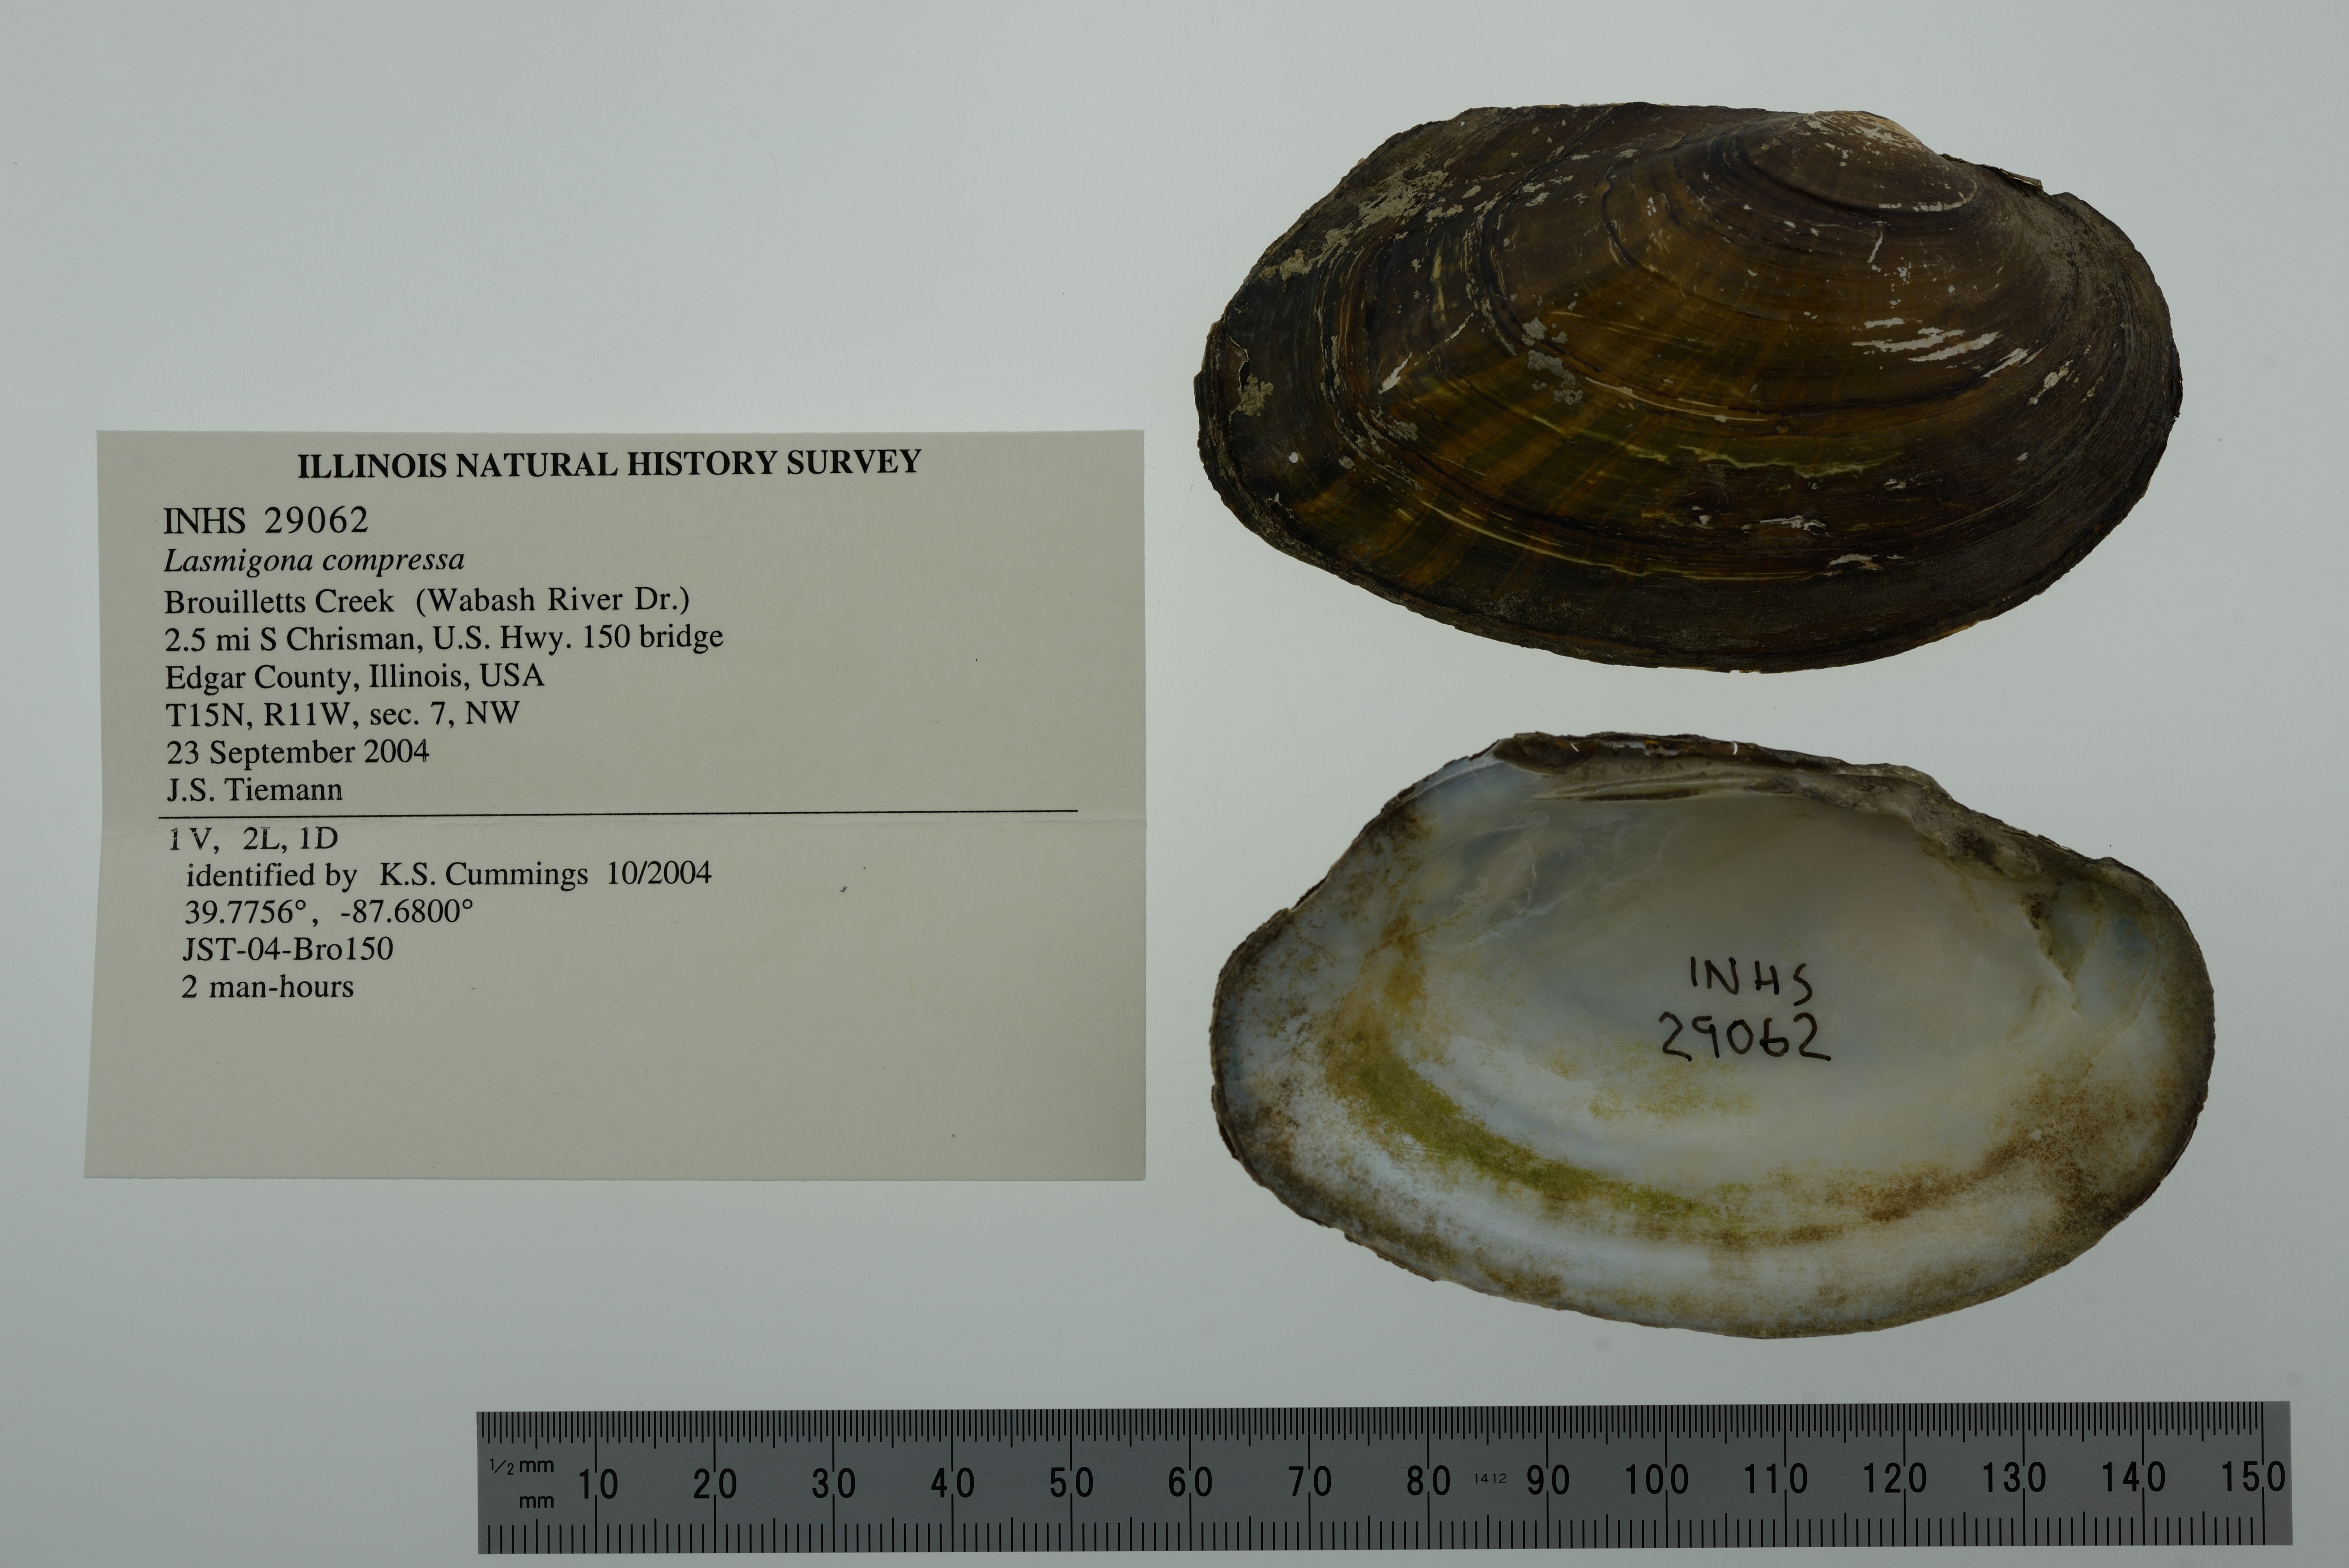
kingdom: Animalia
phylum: Mollusca
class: Bivalvia
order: Unionida
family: Unionidae
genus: Lasmigona
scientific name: Lasmigona compressa
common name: Creek heelsplitter
